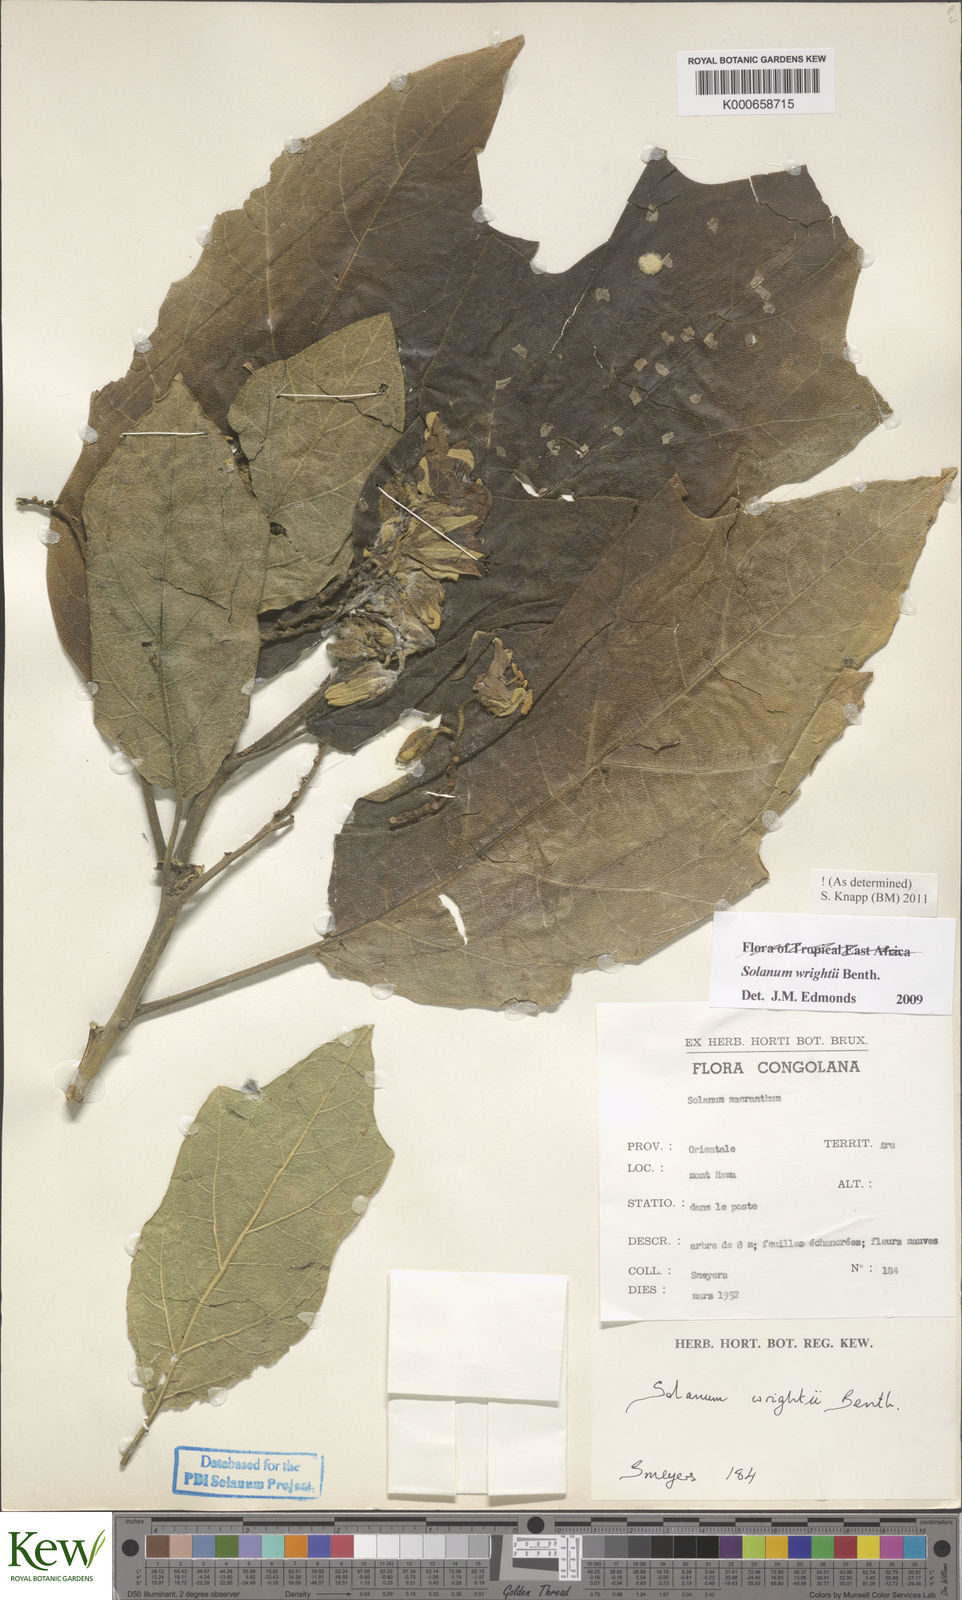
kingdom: Plantae
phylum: Tracheophyta
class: Magnoliopsida
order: Solanales
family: Solanaceae
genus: Solanum
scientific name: Solanum wrightii
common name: Brazilian potato-tree
